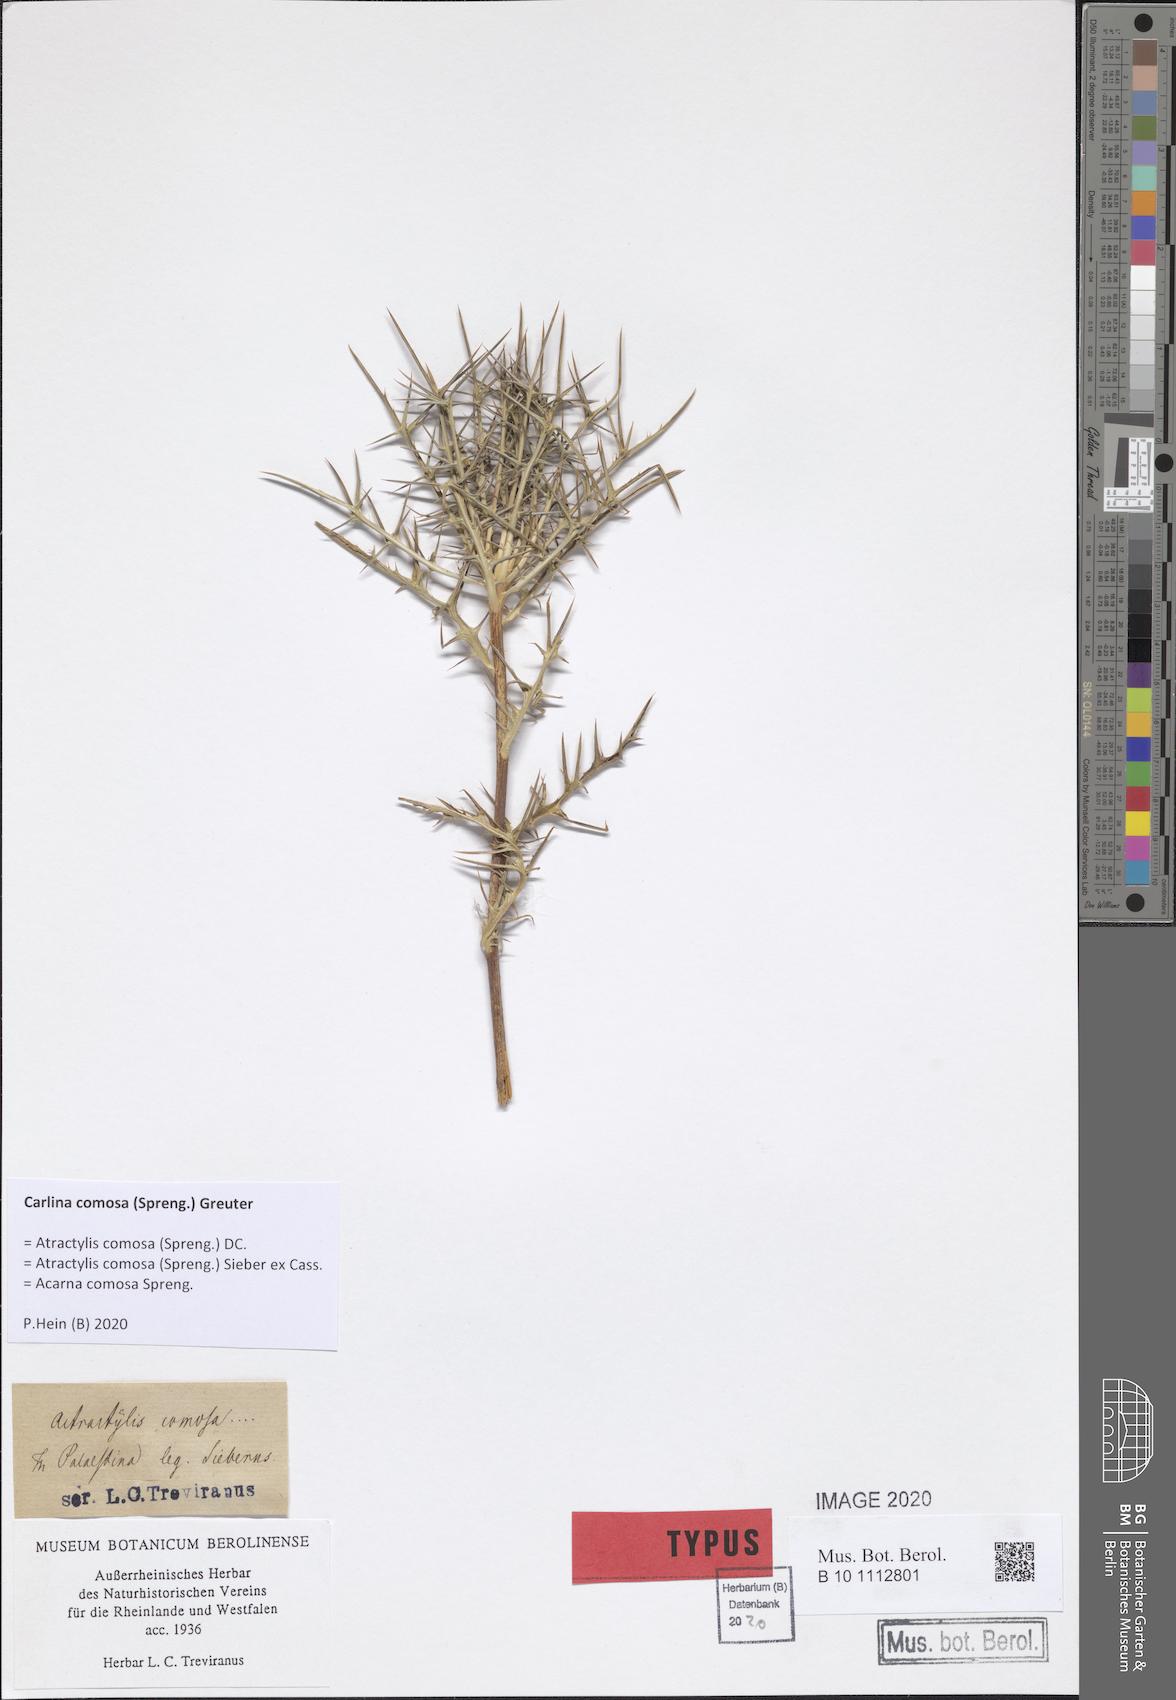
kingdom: Plantae
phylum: Tracheophyta
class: Magnoliopsida
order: Asterales
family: Asteraceae
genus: Chamaeleon
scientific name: Chamaeleon comosus
